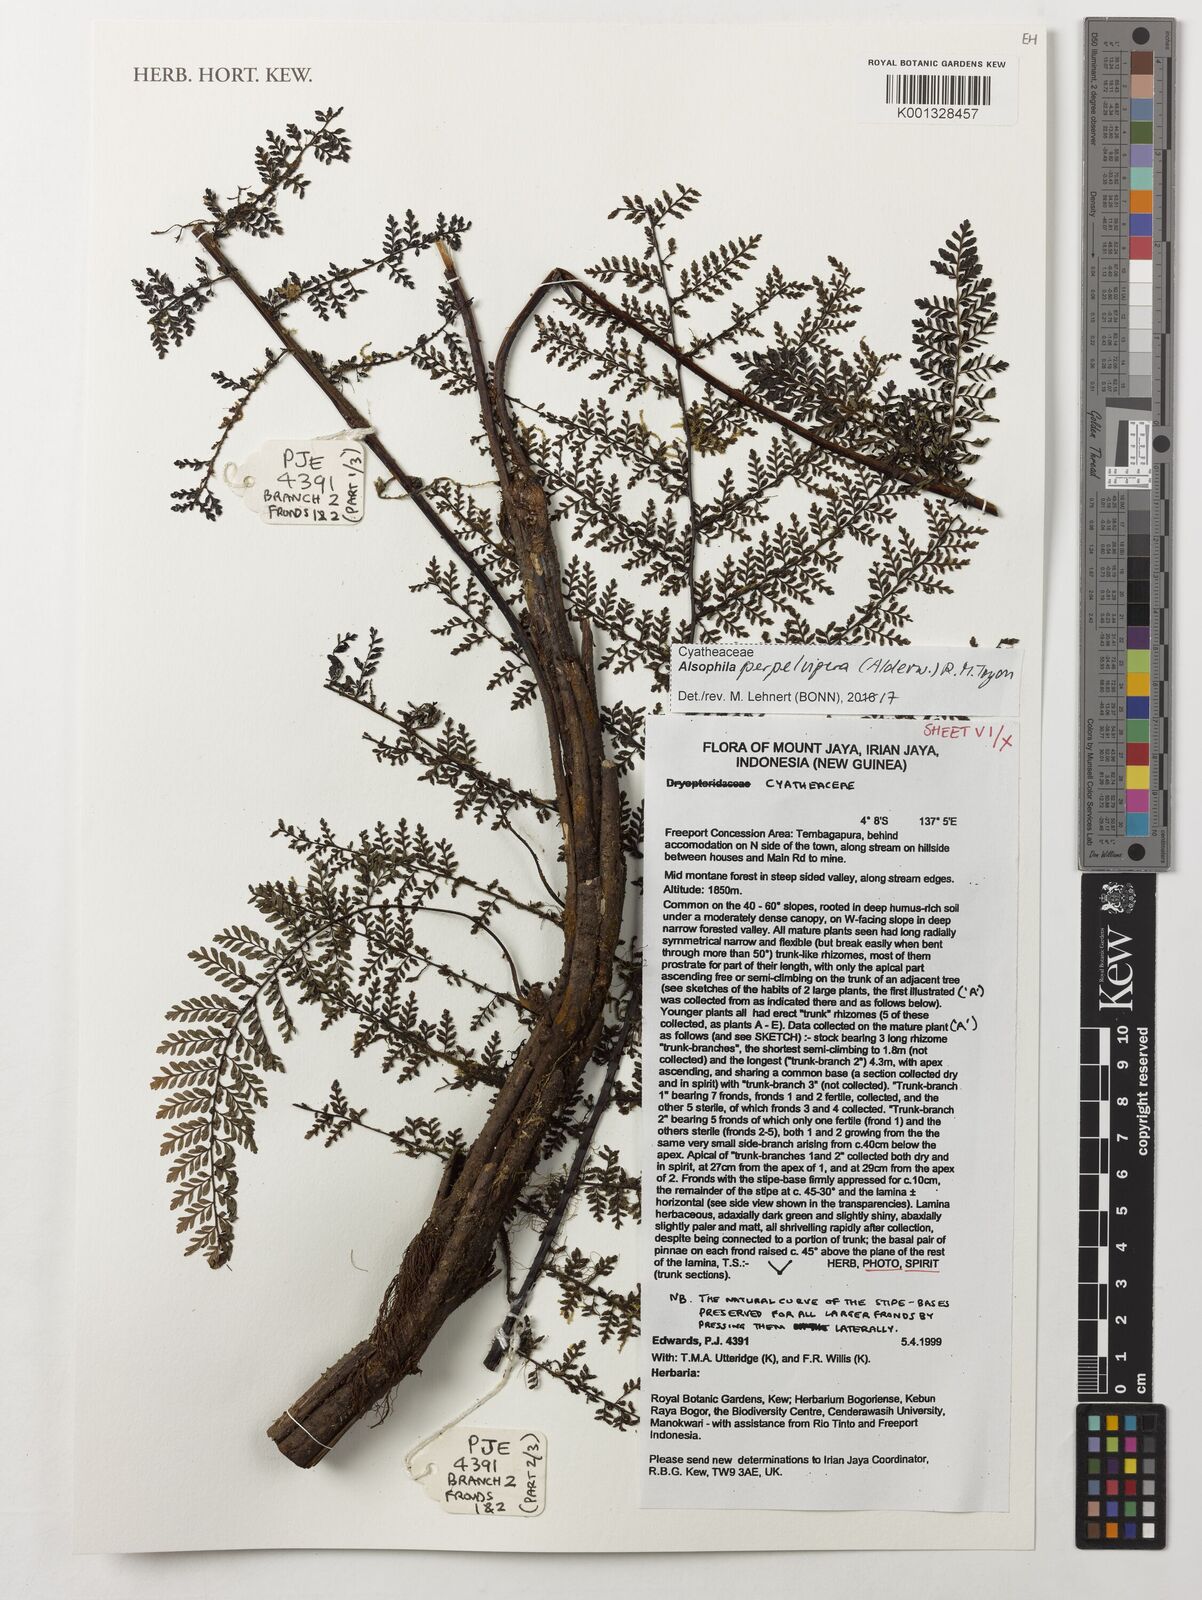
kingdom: Plantae
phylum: Tracheophyta
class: Polypodiopsida
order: Cyatheales
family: Cyatheaceae
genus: Alsophila
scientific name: Alsophila perpelvigera
